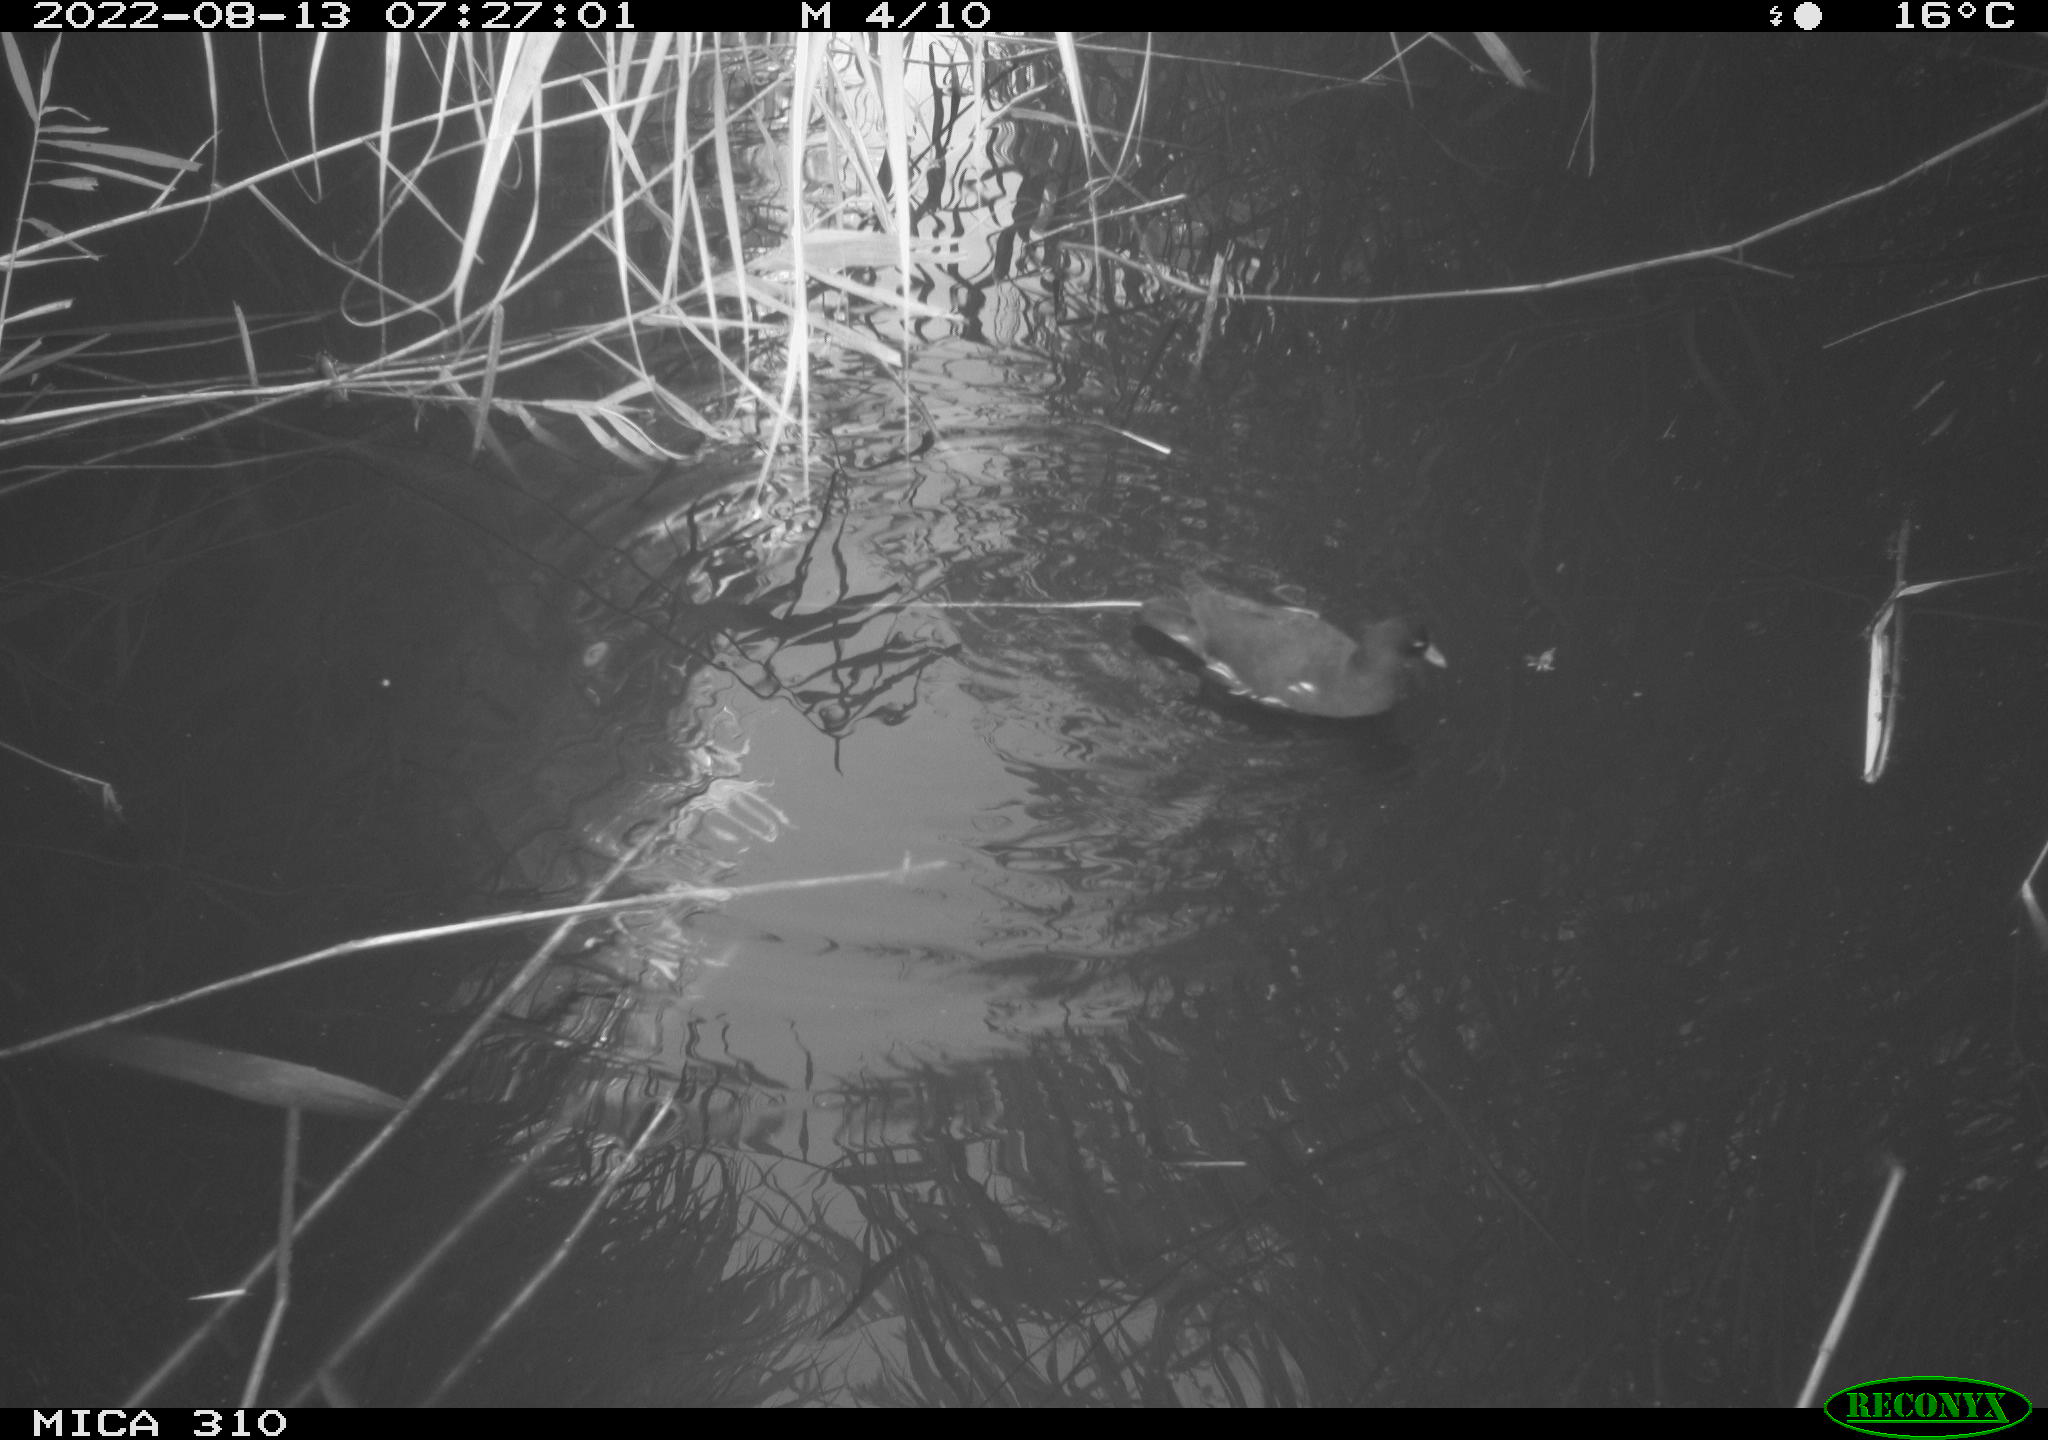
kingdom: Animalia
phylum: Chordata
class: Aves
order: Gruiformes
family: Rallidae
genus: Gallinula
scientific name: Gallinula chloropus
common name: Common moorhen
